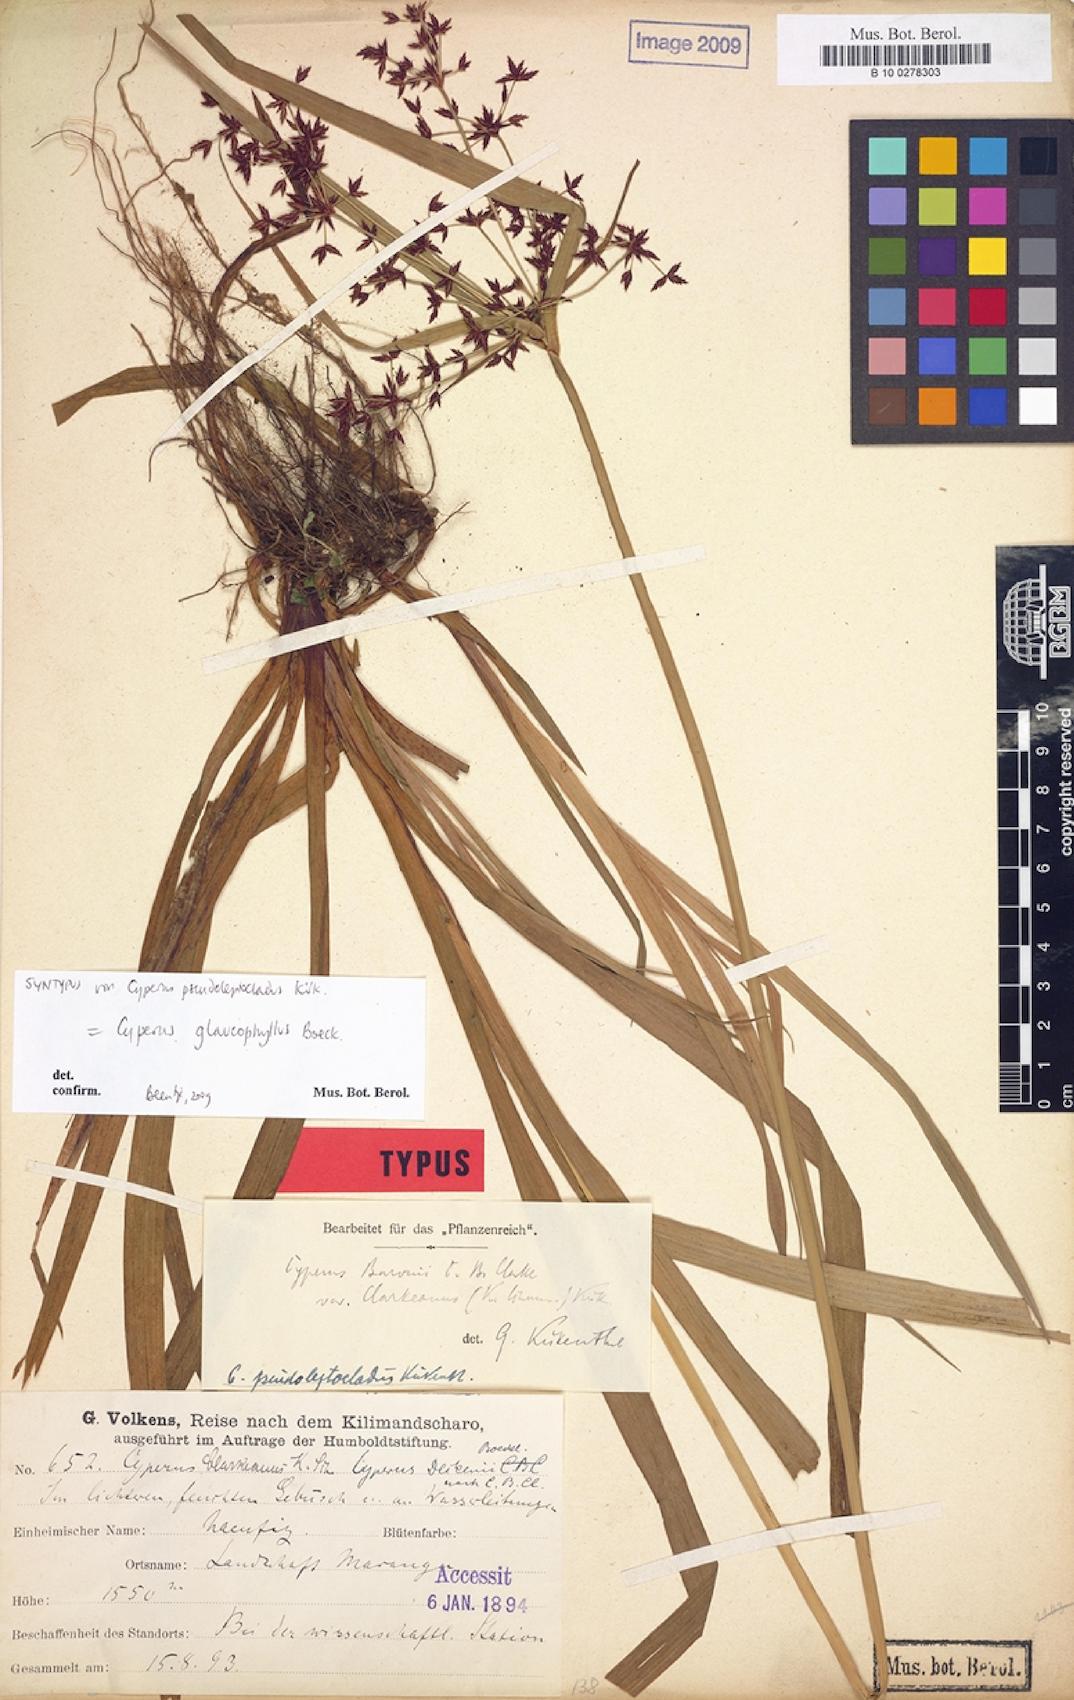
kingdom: Plantae
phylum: Tracheophyta
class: Liliopsida
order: Poales
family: Cyperaceae
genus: Cyperus
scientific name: Cyperus glaucophyllus
